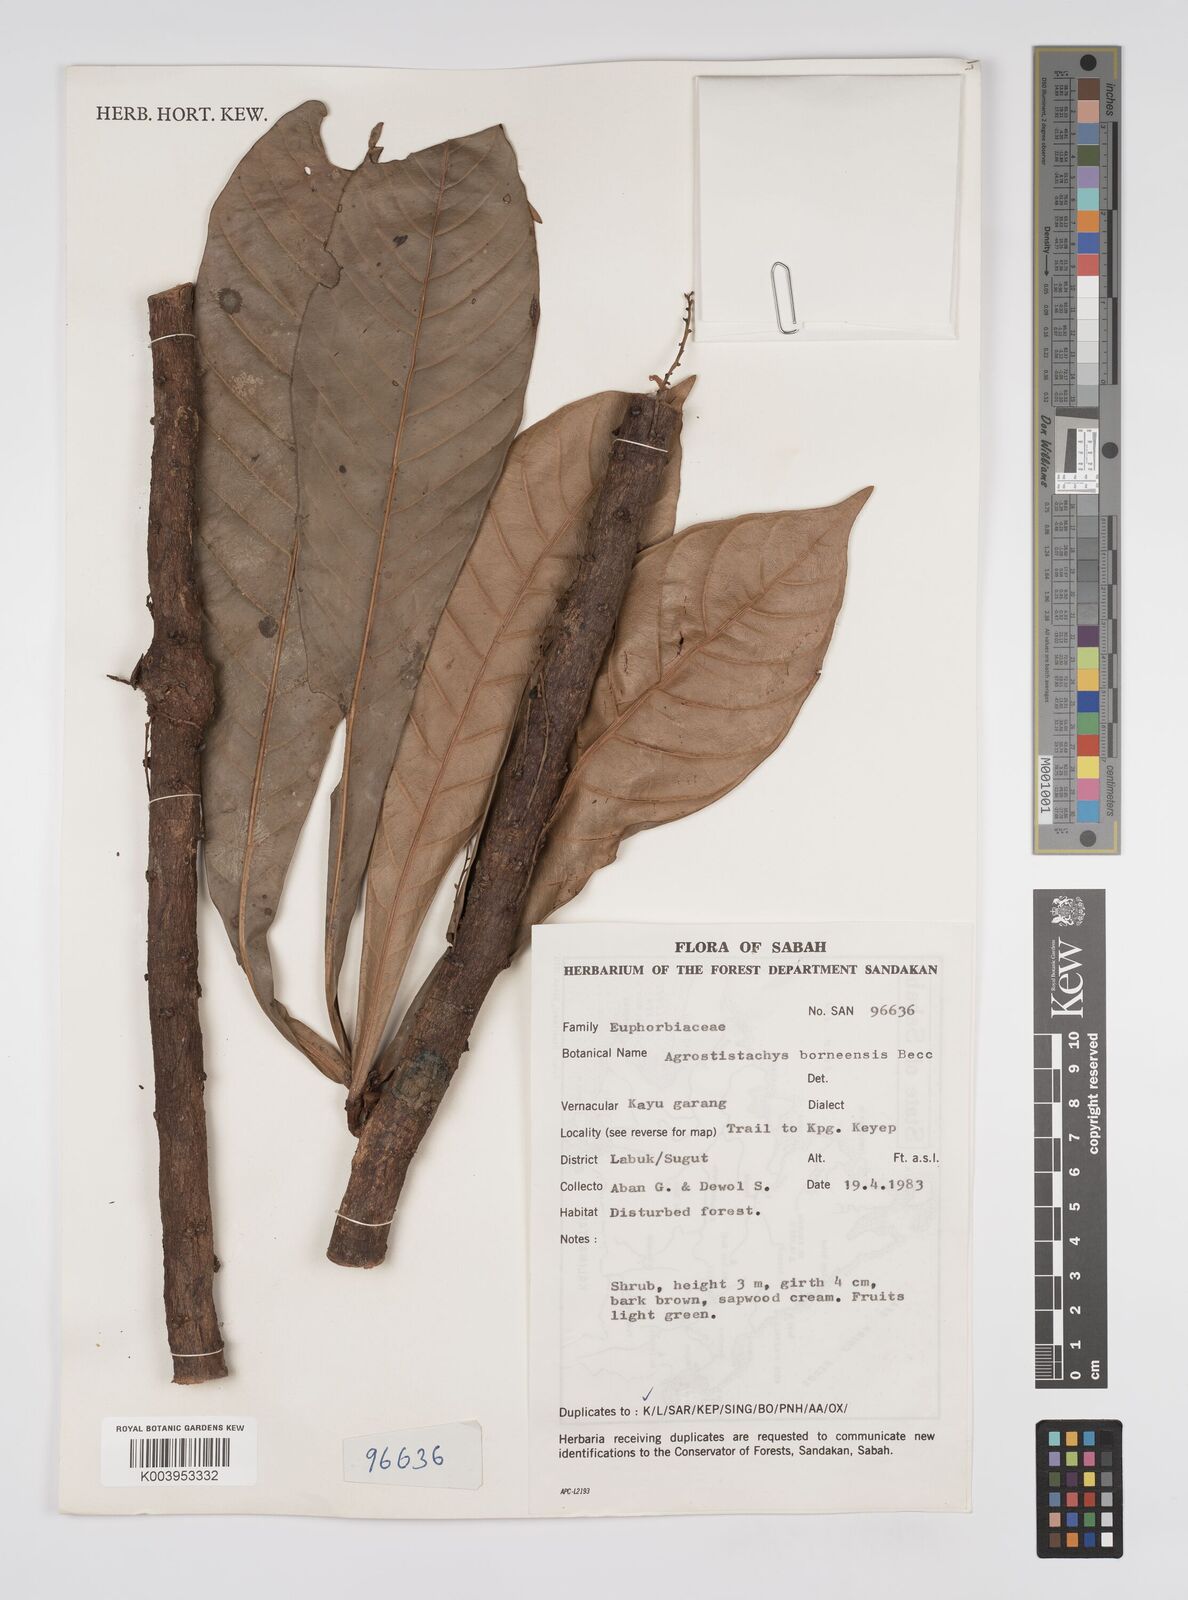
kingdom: Plantae
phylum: Tracheophyta
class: Magnoliopsida
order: Malpighiales
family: Euphorbiaceae
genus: Agrostistachys
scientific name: Agrostistachys borneensis
